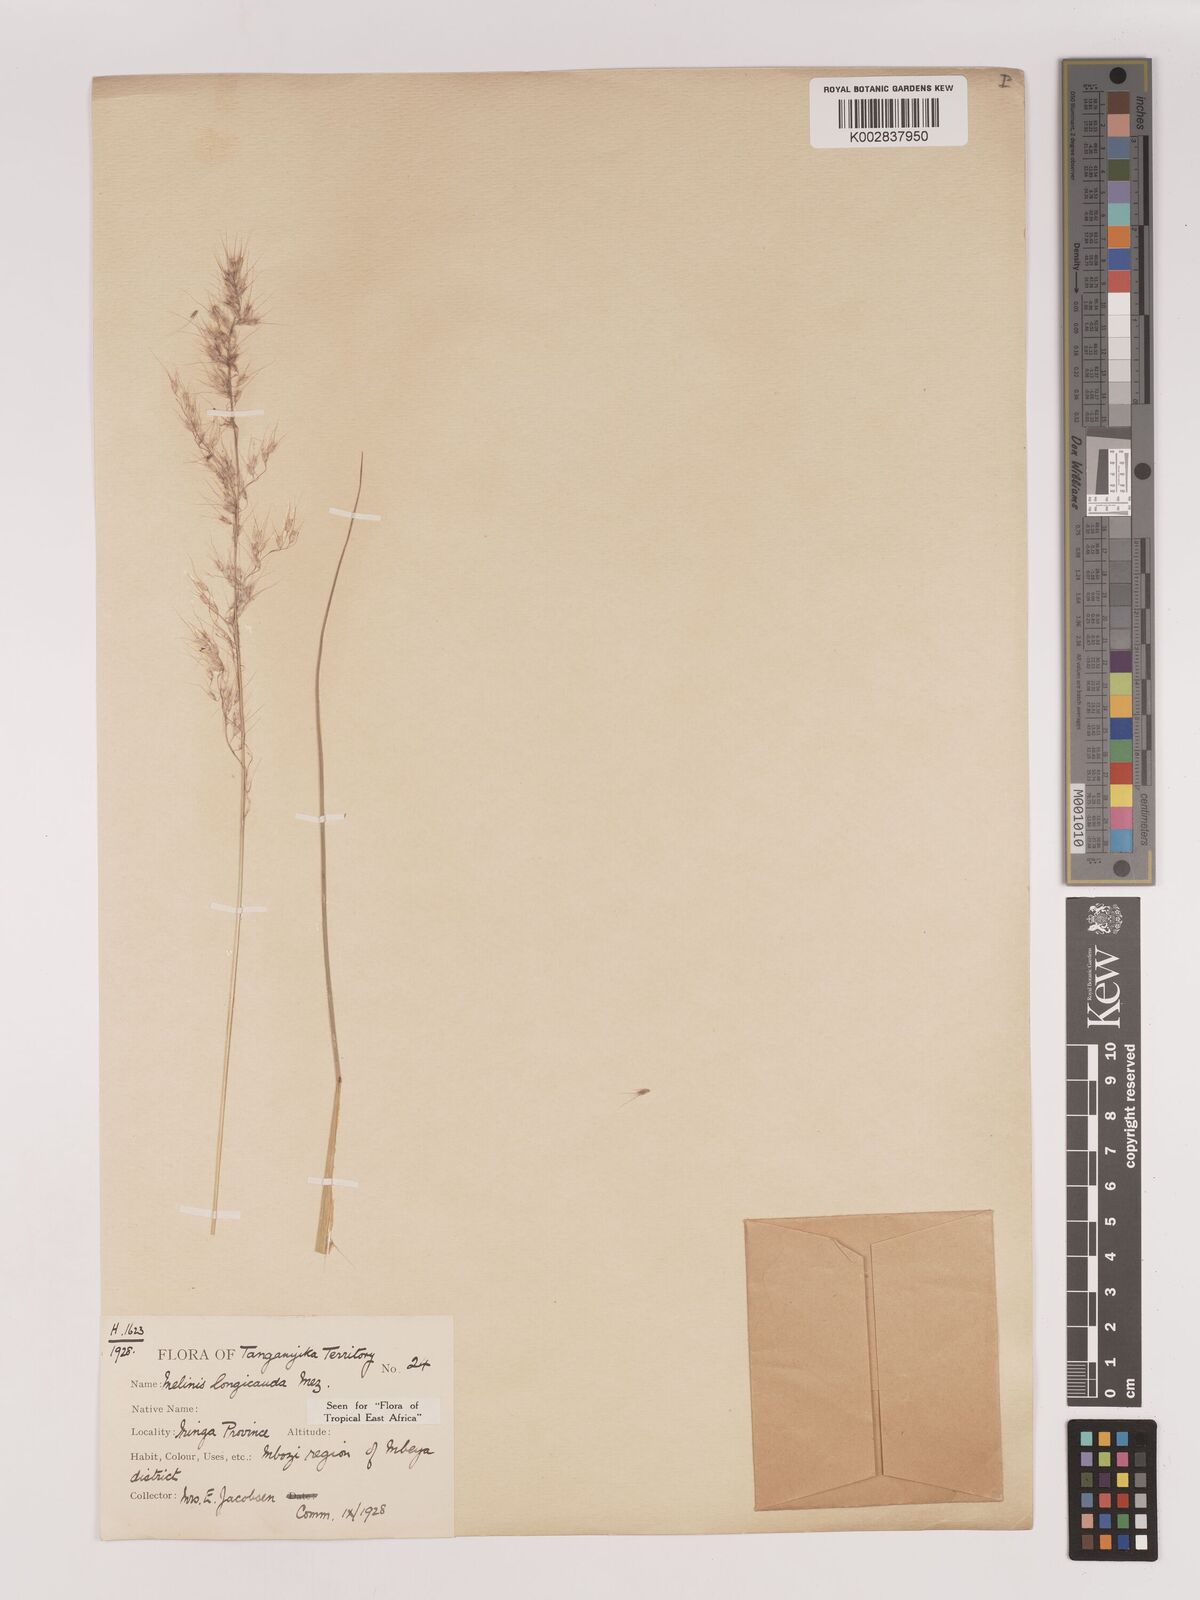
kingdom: Plantae
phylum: Tracheophyta
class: Liliopsida
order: Poales
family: Poaceae
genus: Melinis
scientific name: Melinis ambigua
